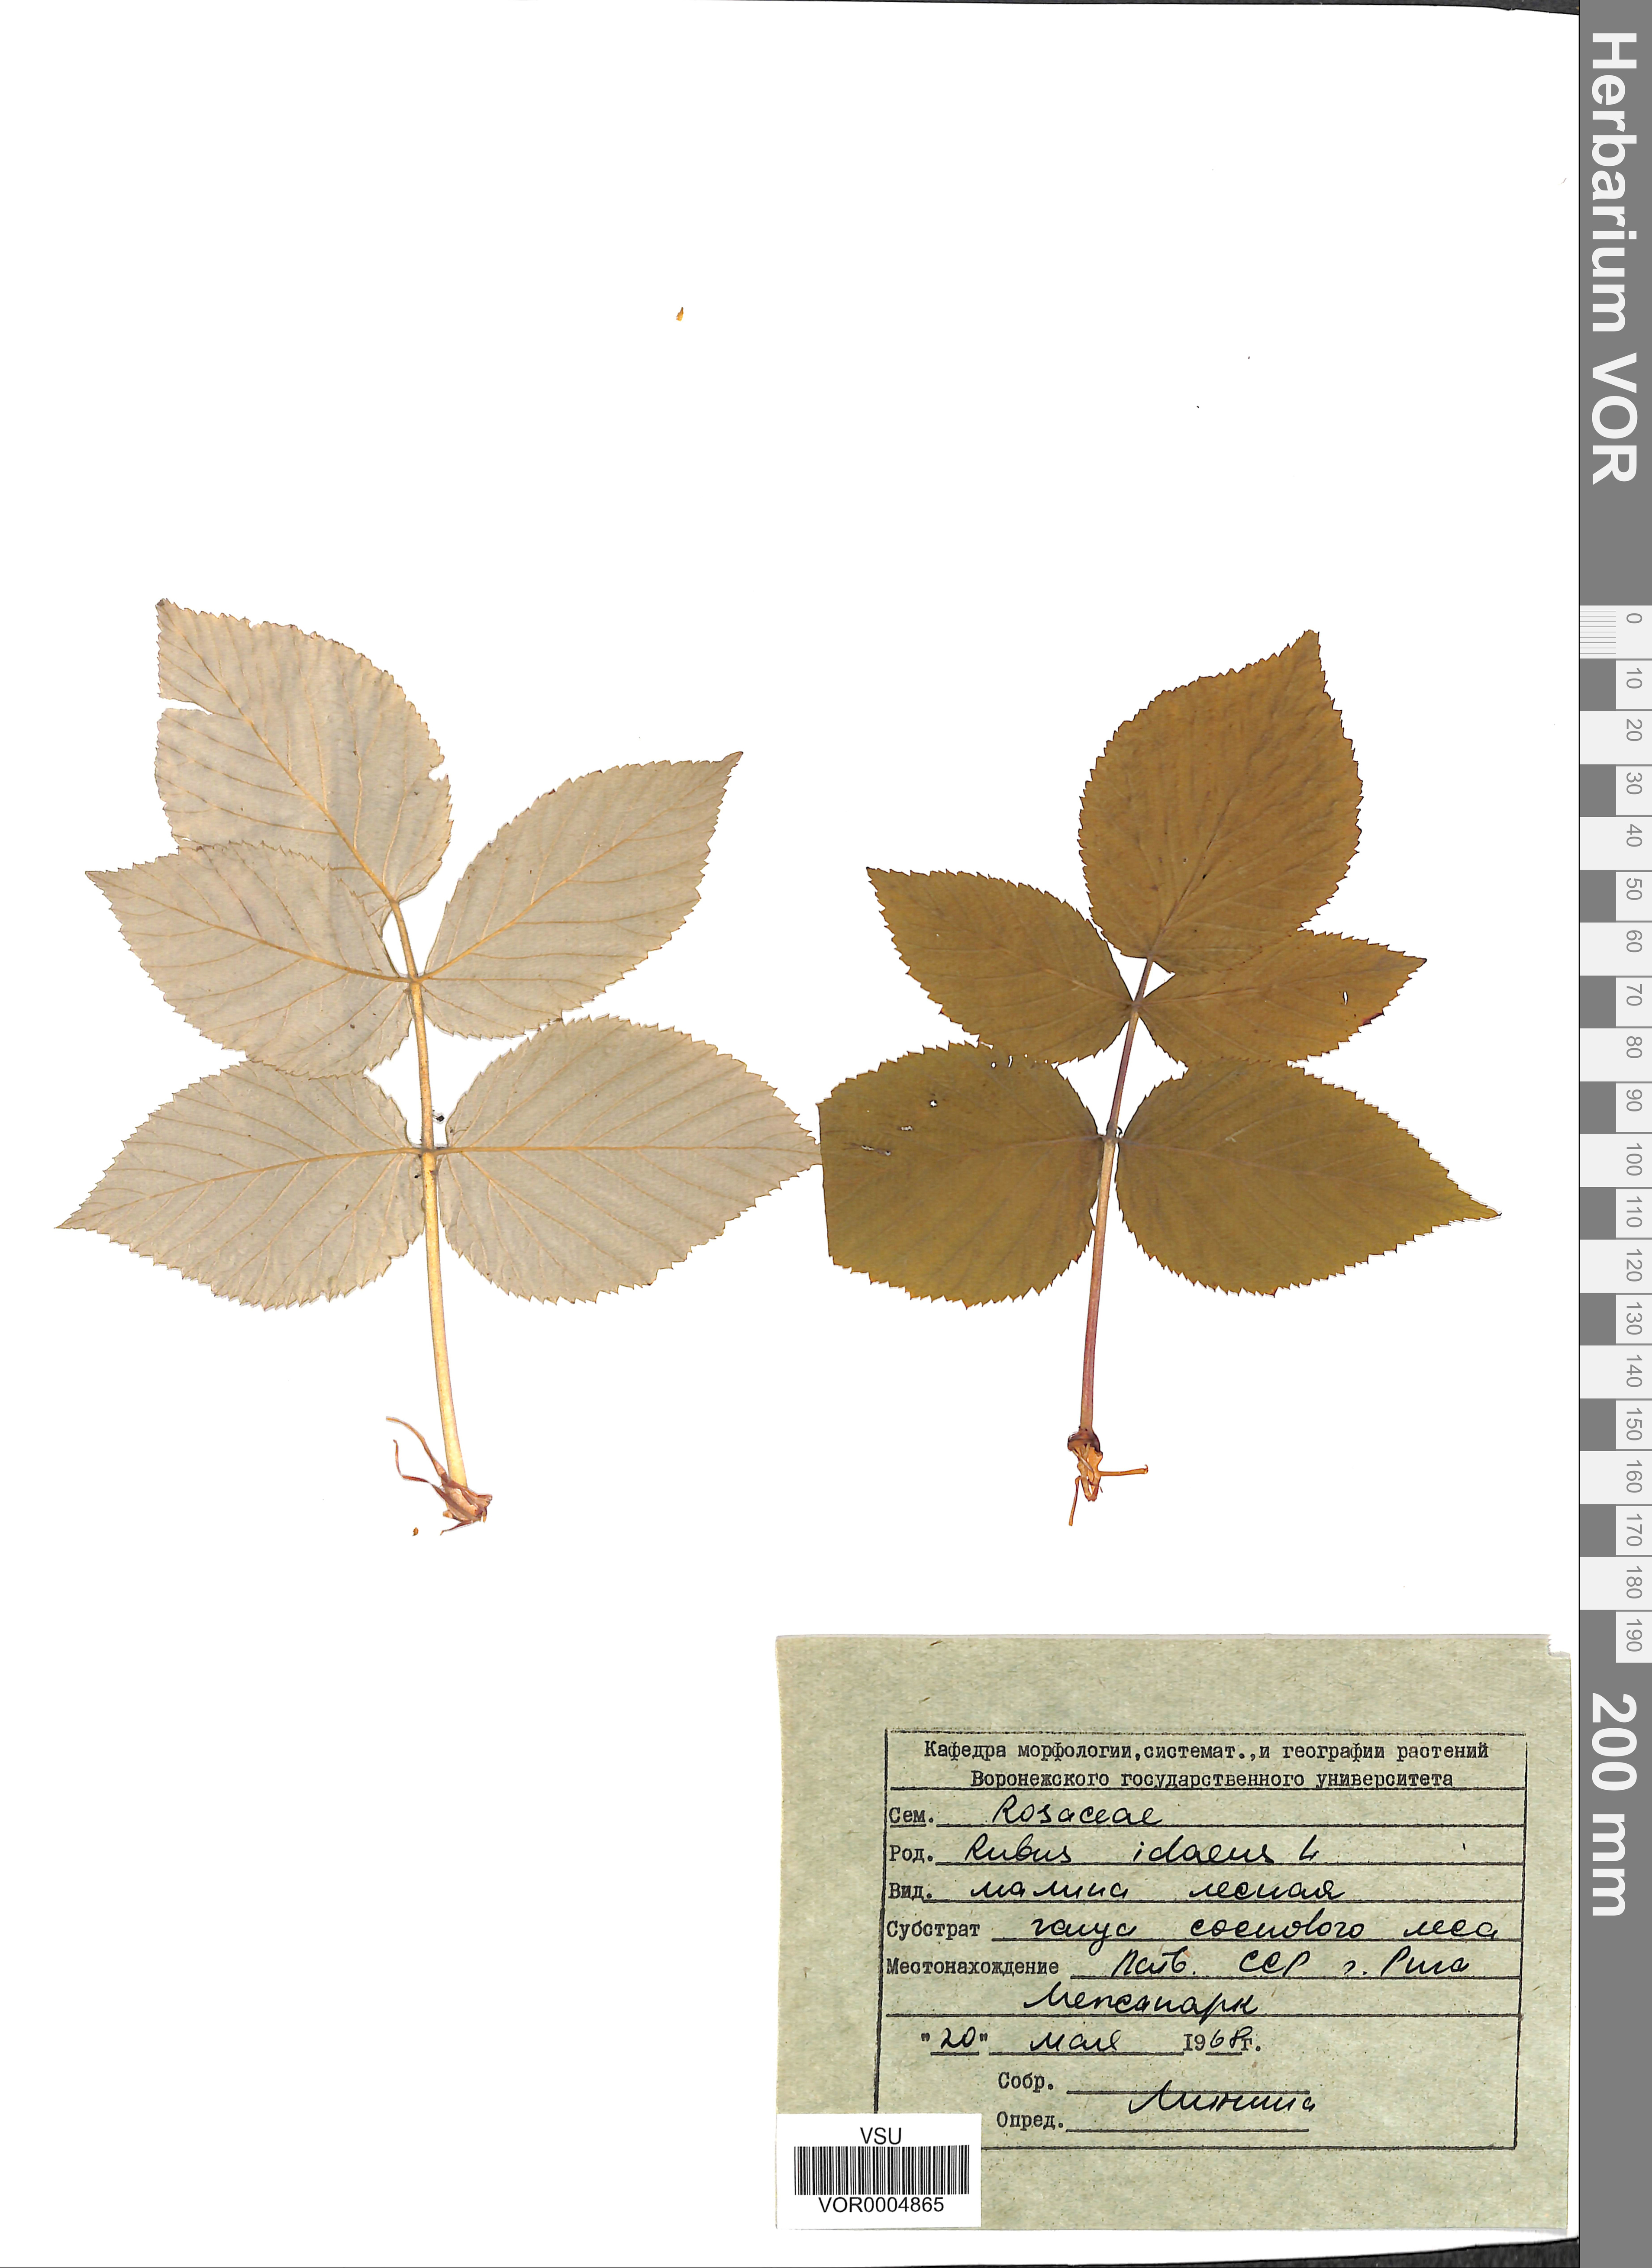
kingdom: Plantae
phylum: Tracheophyta
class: Magnoliopsida
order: Rosales
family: Rosaceae
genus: Rubus
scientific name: Rubus idaeus
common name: Raspberry
